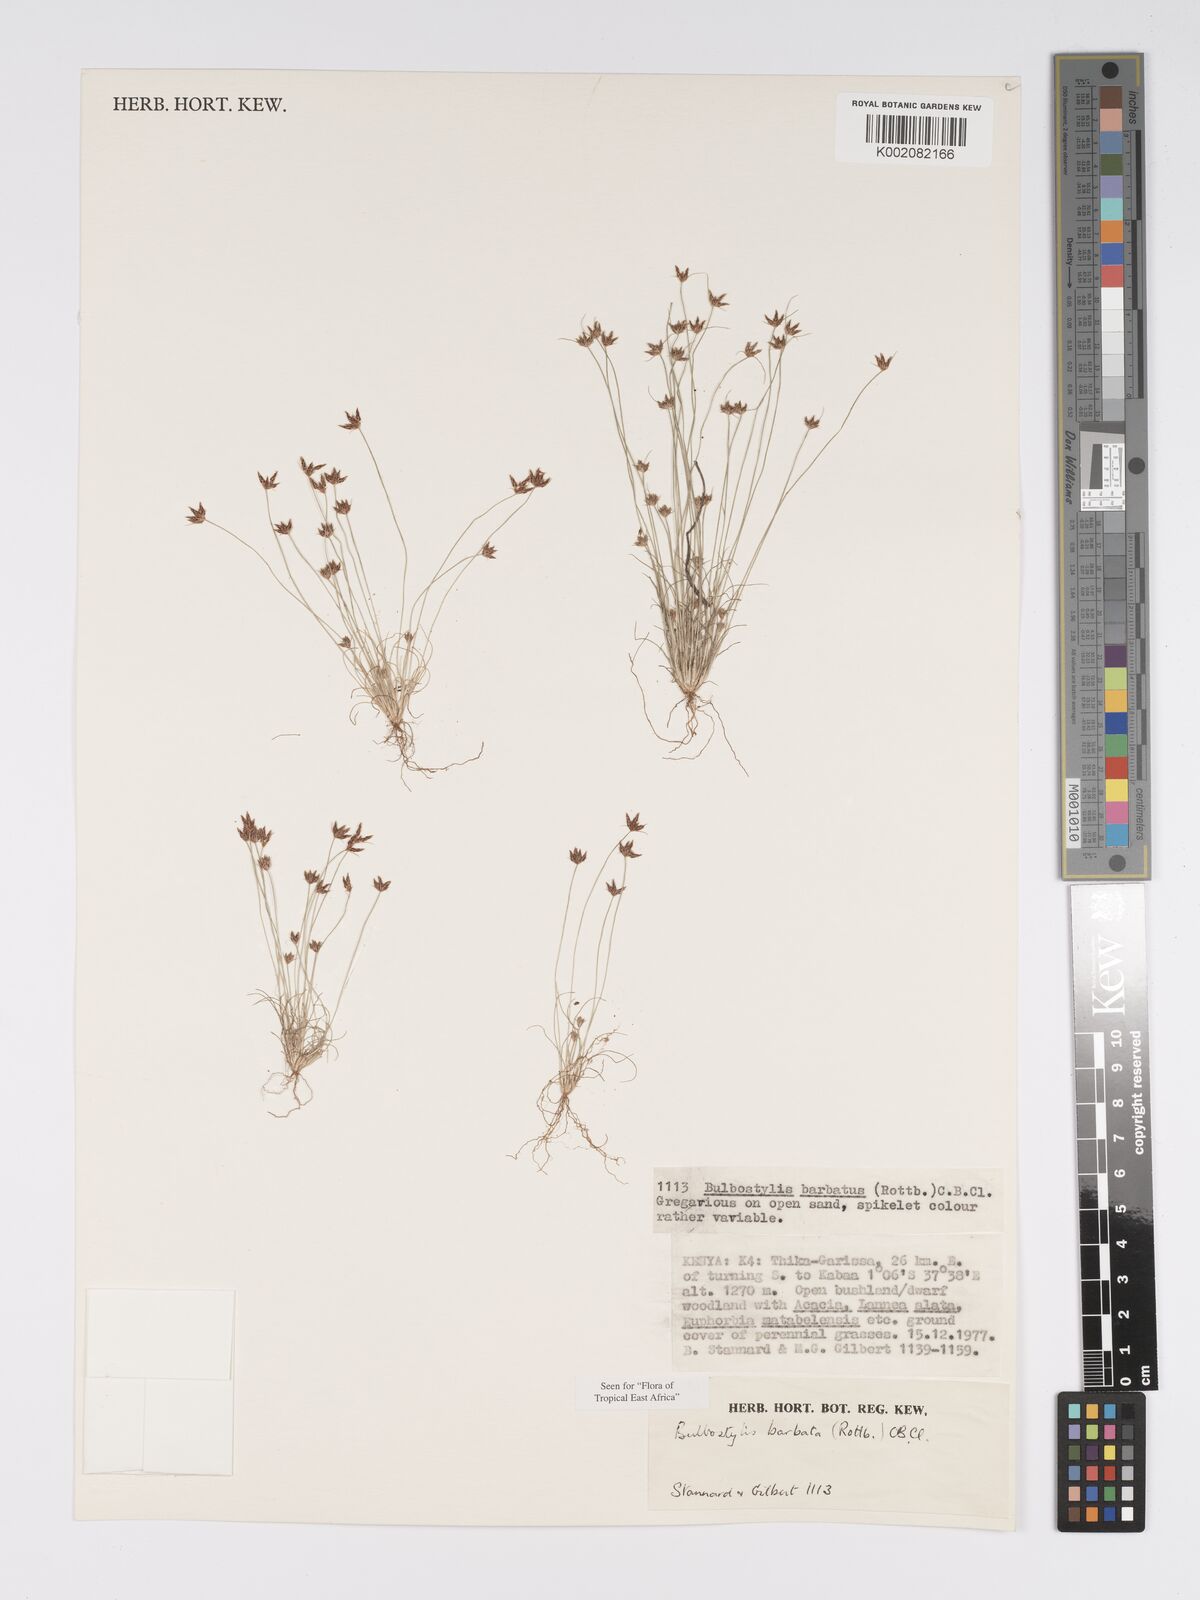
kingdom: Plantae
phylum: Tracheophyta
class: Liliopsida
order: Poales
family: Cyperaceae
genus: Bulbostylis
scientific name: Bulbostylis barbata
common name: Watergrass
